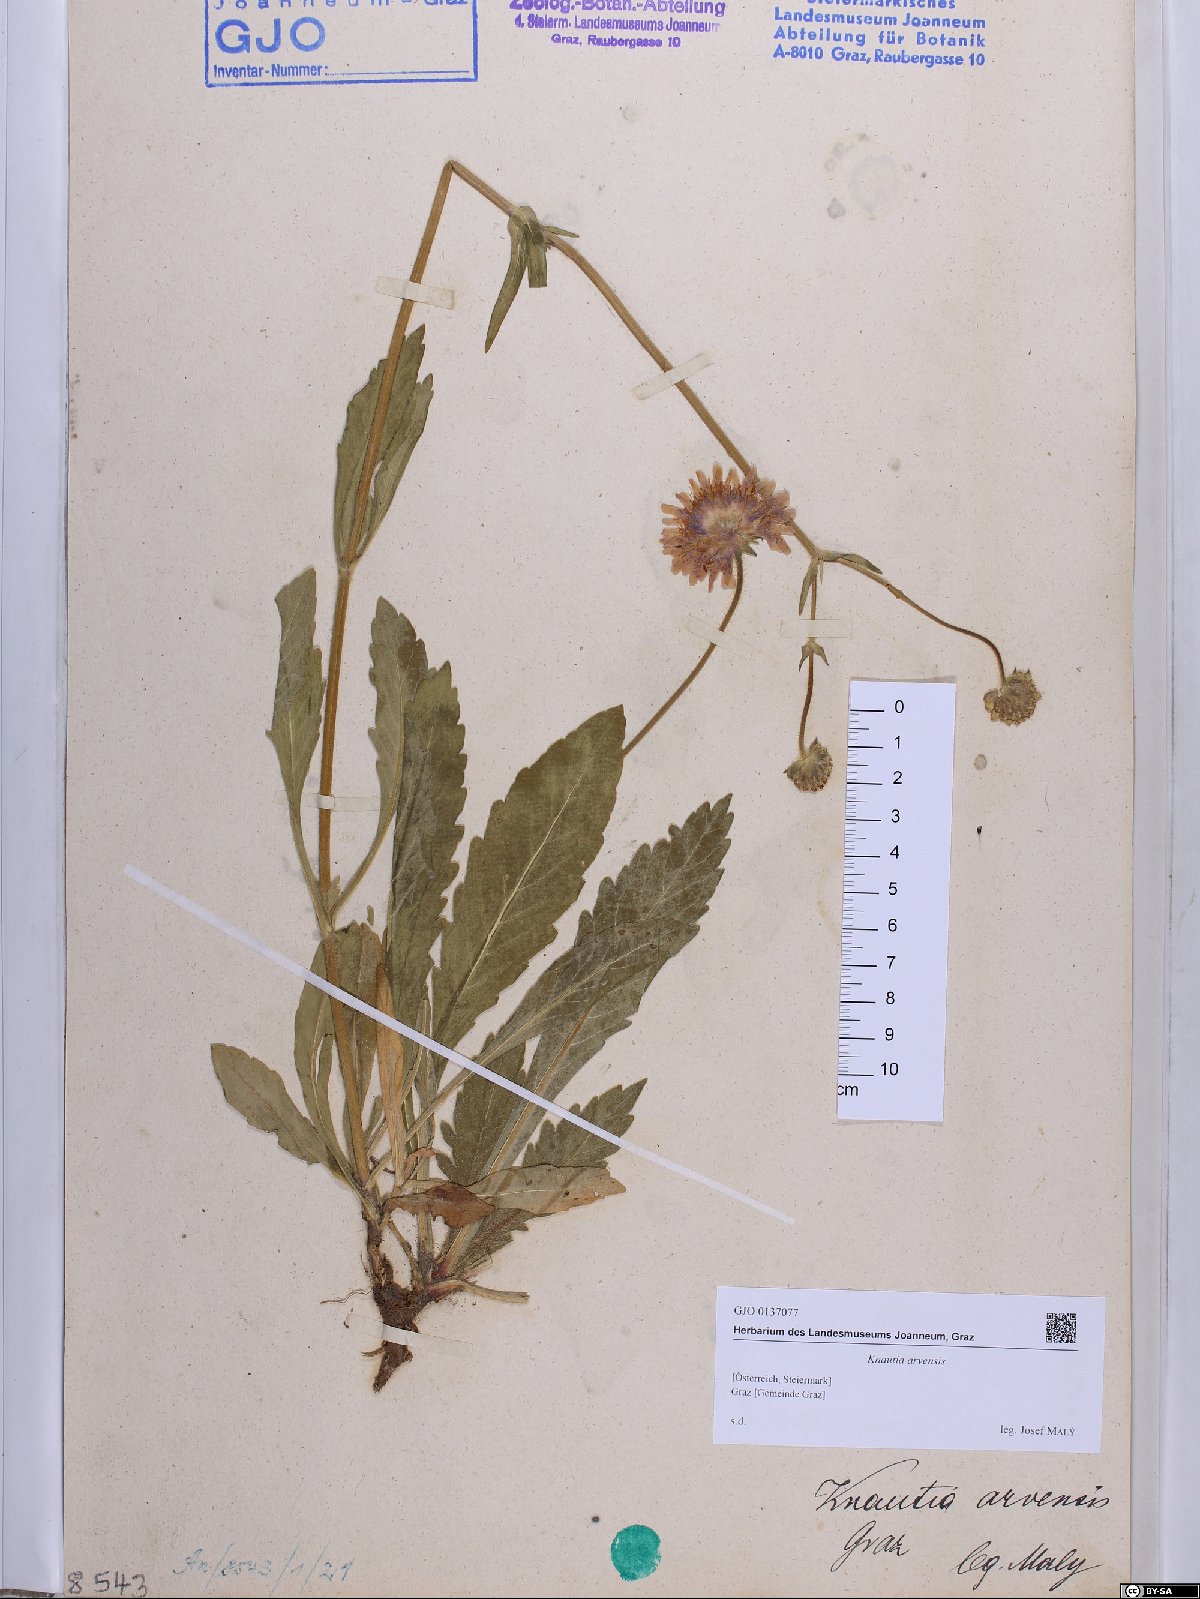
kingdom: Plantae
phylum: Tracheophyta
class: Magnoliopsida
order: Dipsacales
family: Caprifoliaceae
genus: Knautia
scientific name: Knautia arvensis
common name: Field scabiosa
